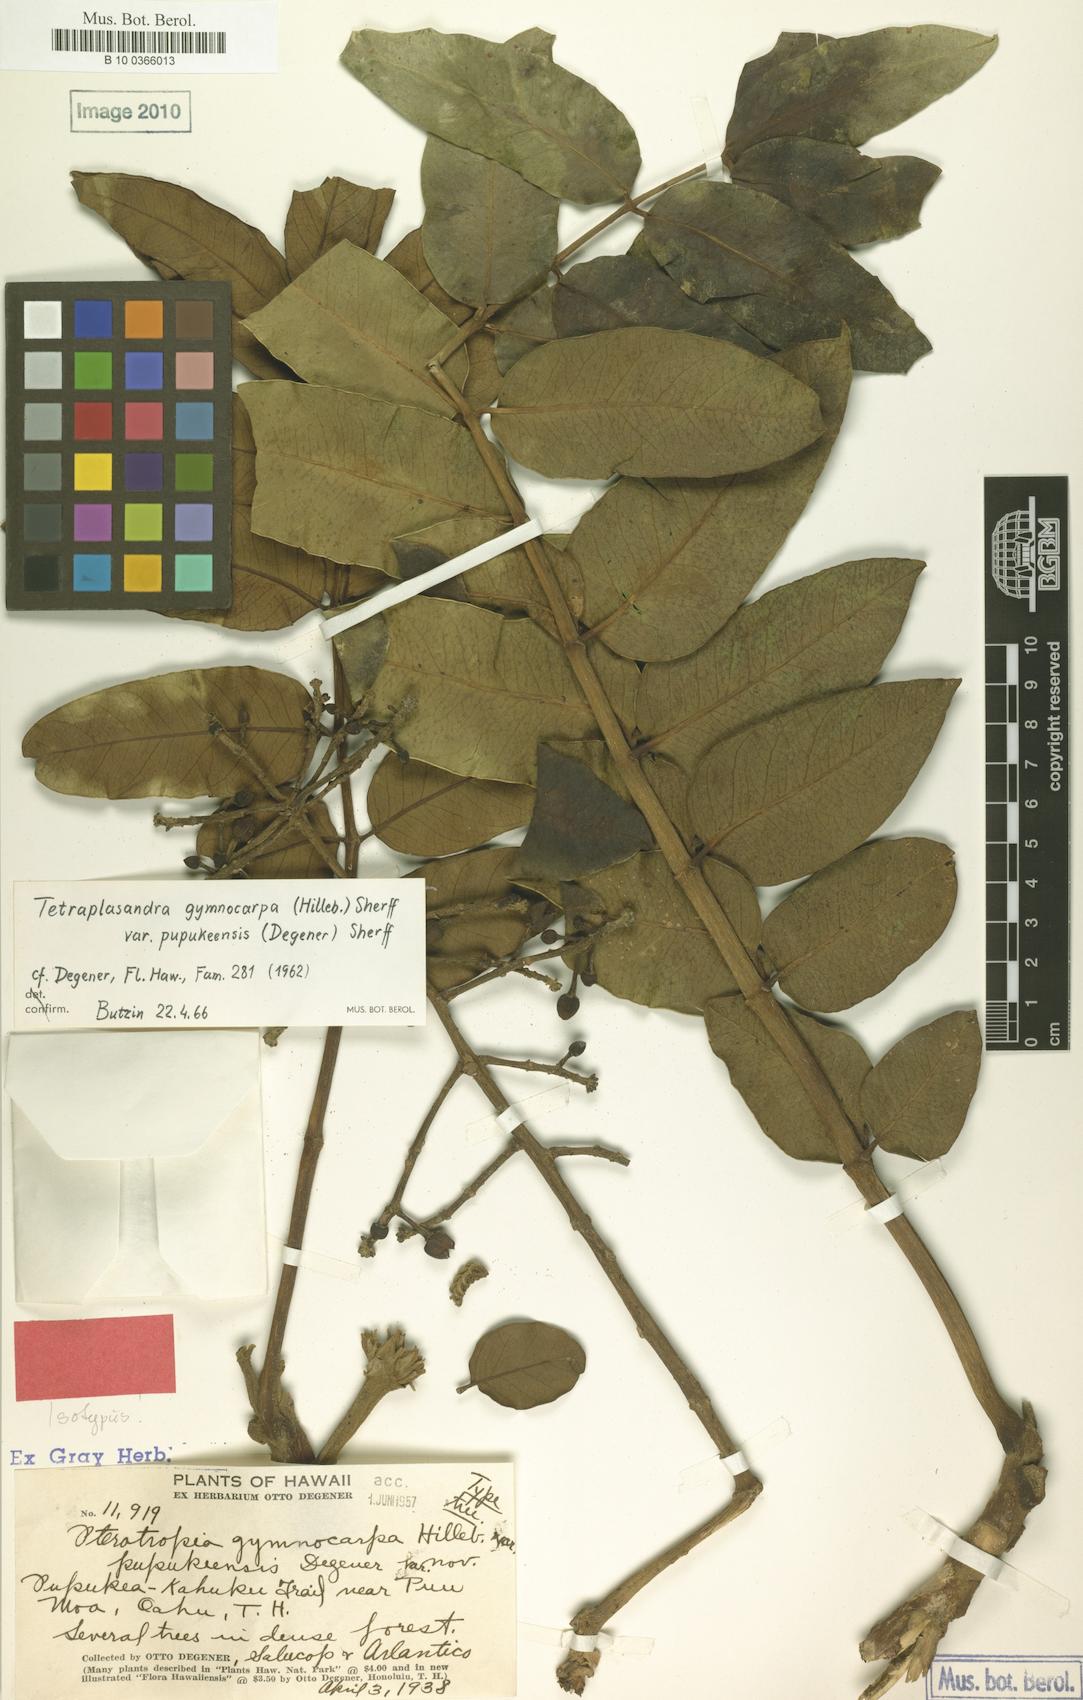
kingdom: Plantae
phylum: Tracheophyta
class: Magnoliopsida
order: Apiales
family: Araliaceae
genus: Polyscias
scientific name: Polyscias gymnocarpa
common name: Koolau tetraplasandra
